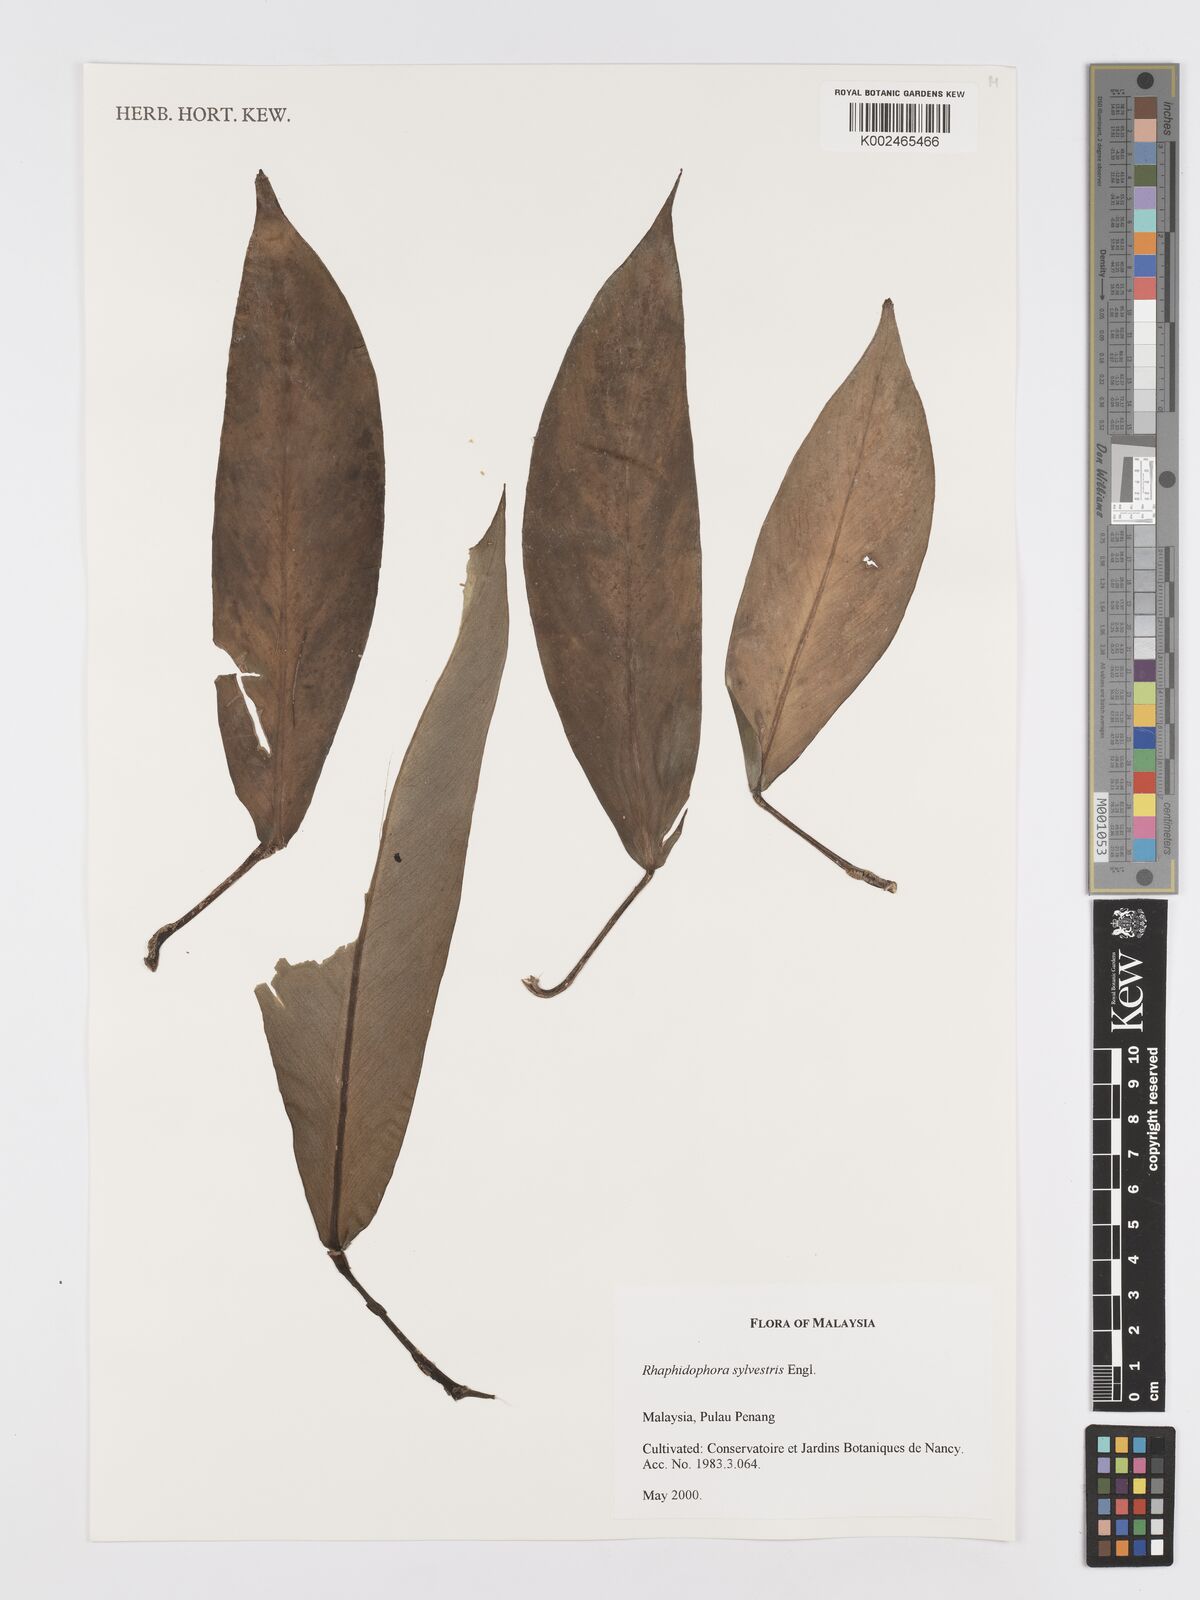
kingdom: Plantae
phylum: Tracheophyta
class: Liliopsida
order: Alismatales
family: Araceae
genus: Rhaphidophora
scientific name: Rhaphidophora sylvestris
